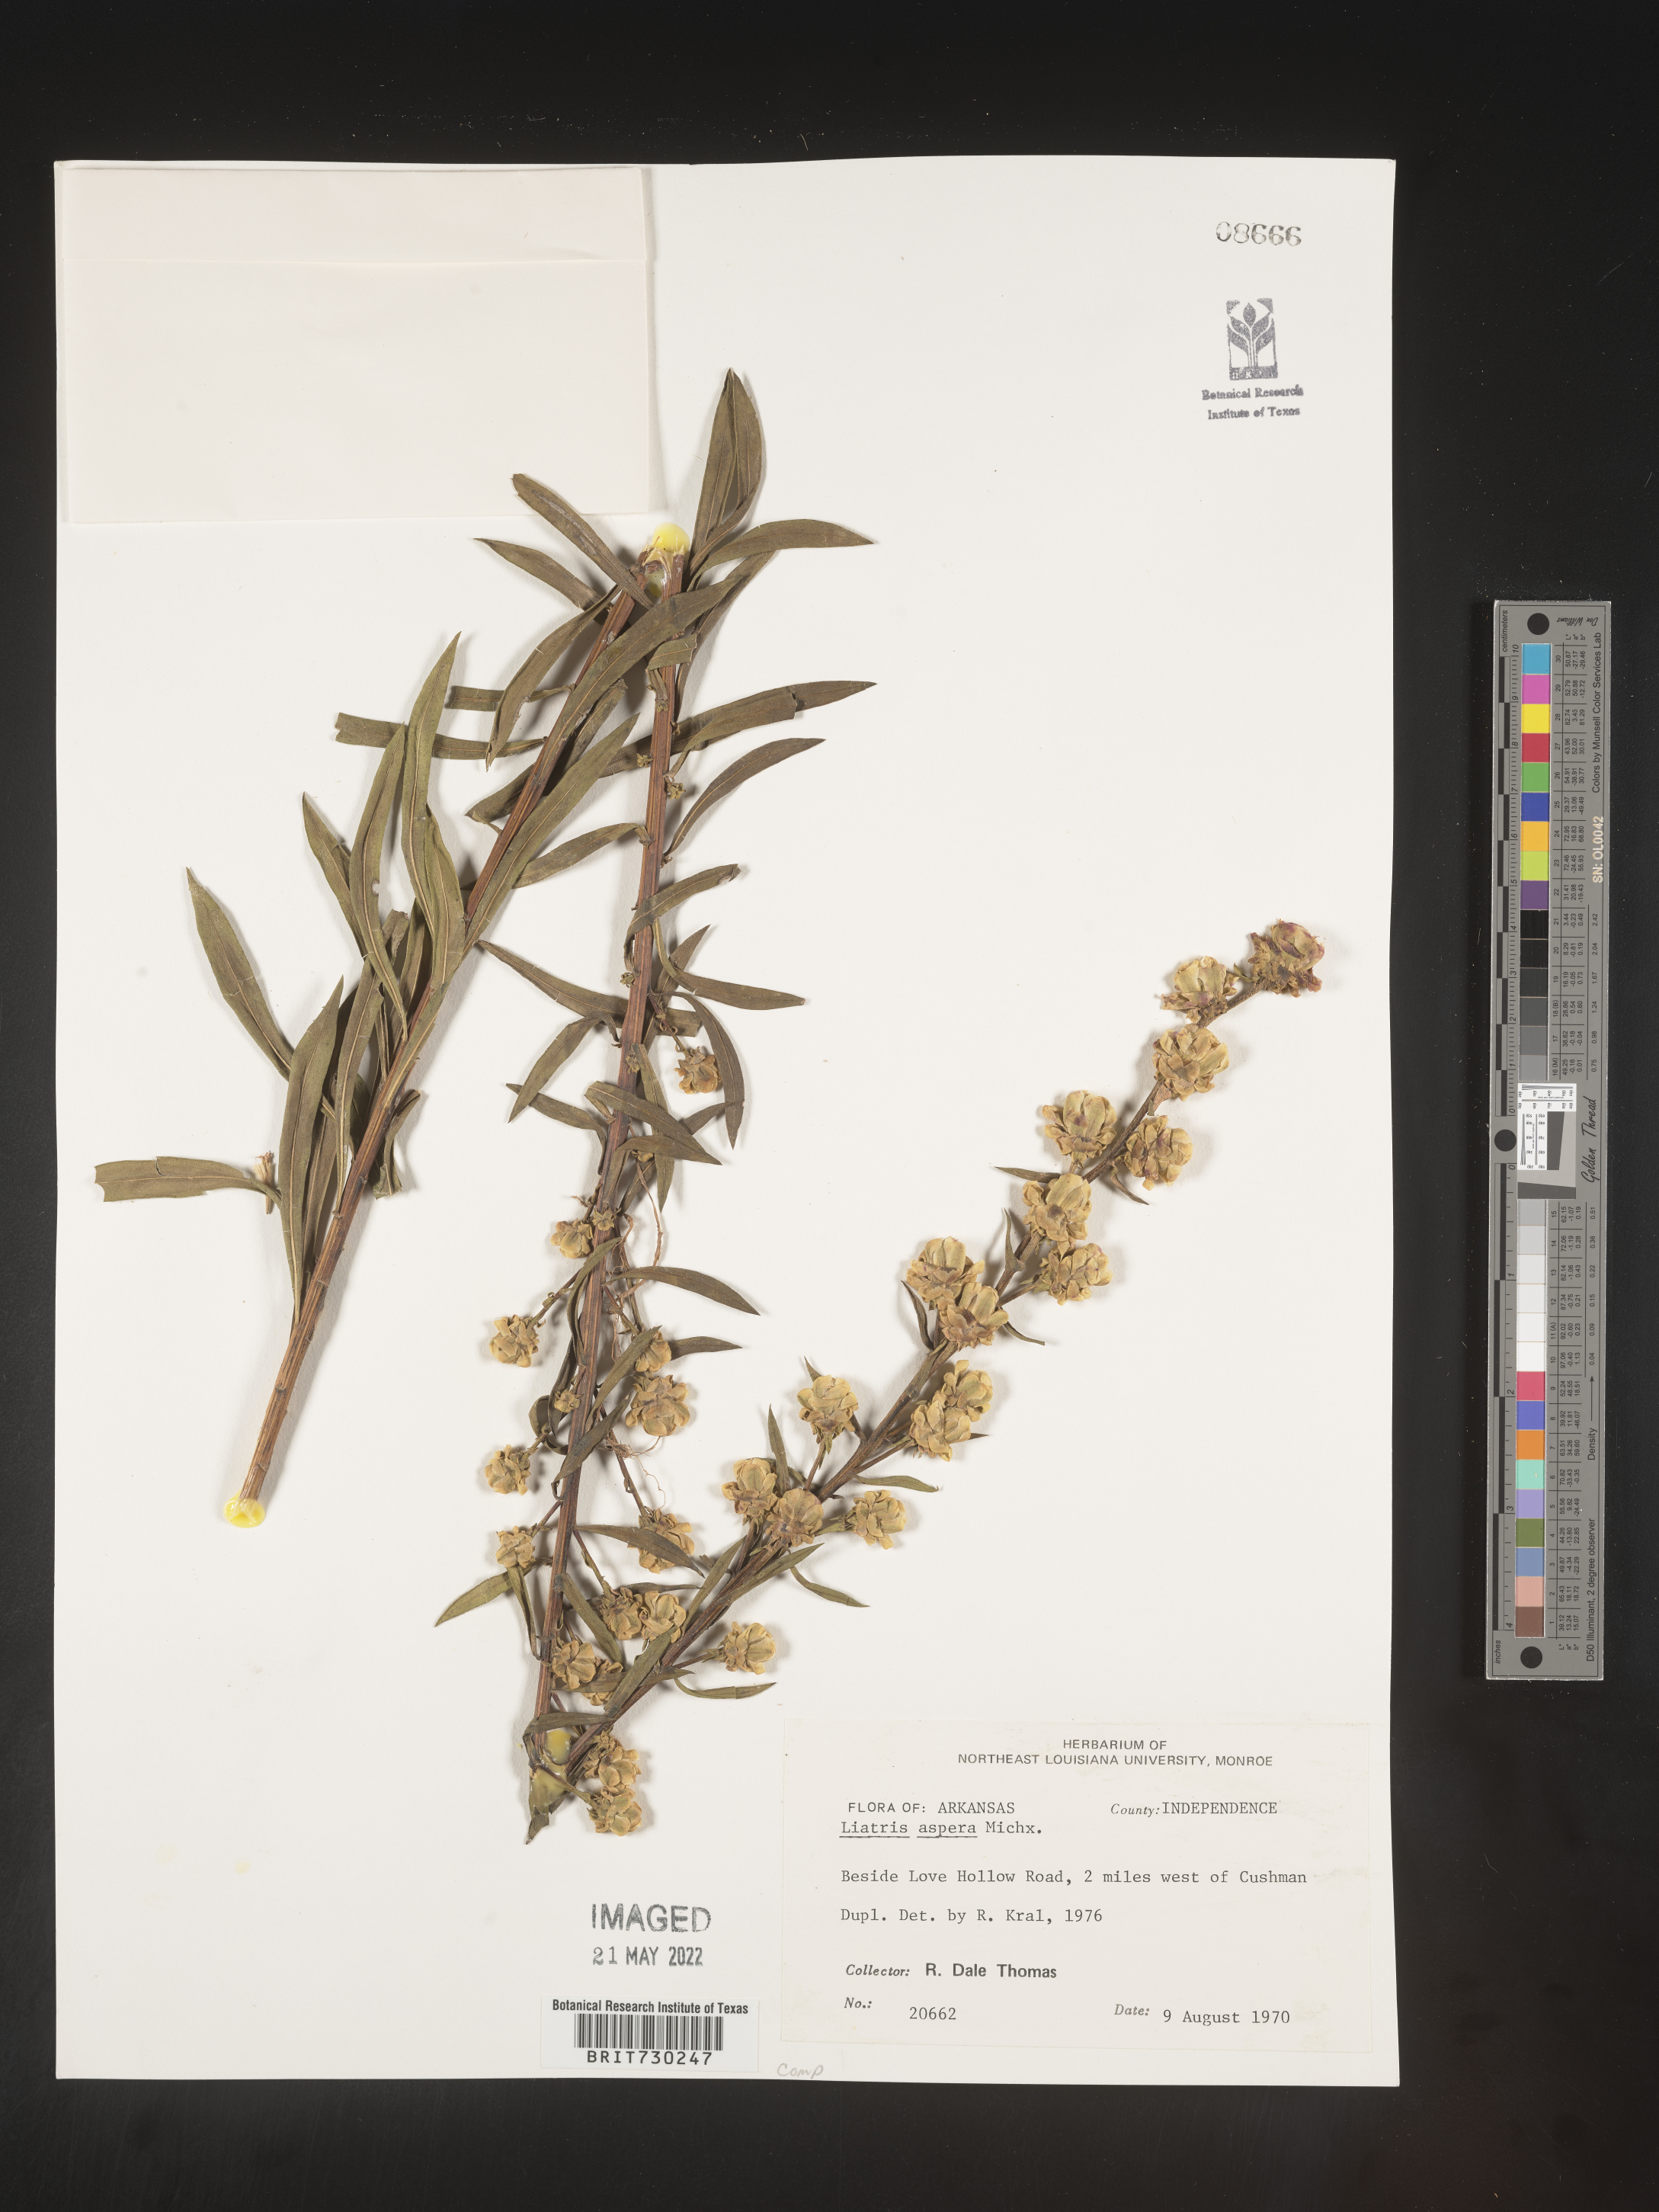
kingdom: Plantae
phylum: Tracheophyta
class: Magnoliopsida
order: Asterales
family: Asteraceae
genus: Liatris
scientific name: Liatris aspera
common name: Lacerate blazing-star
